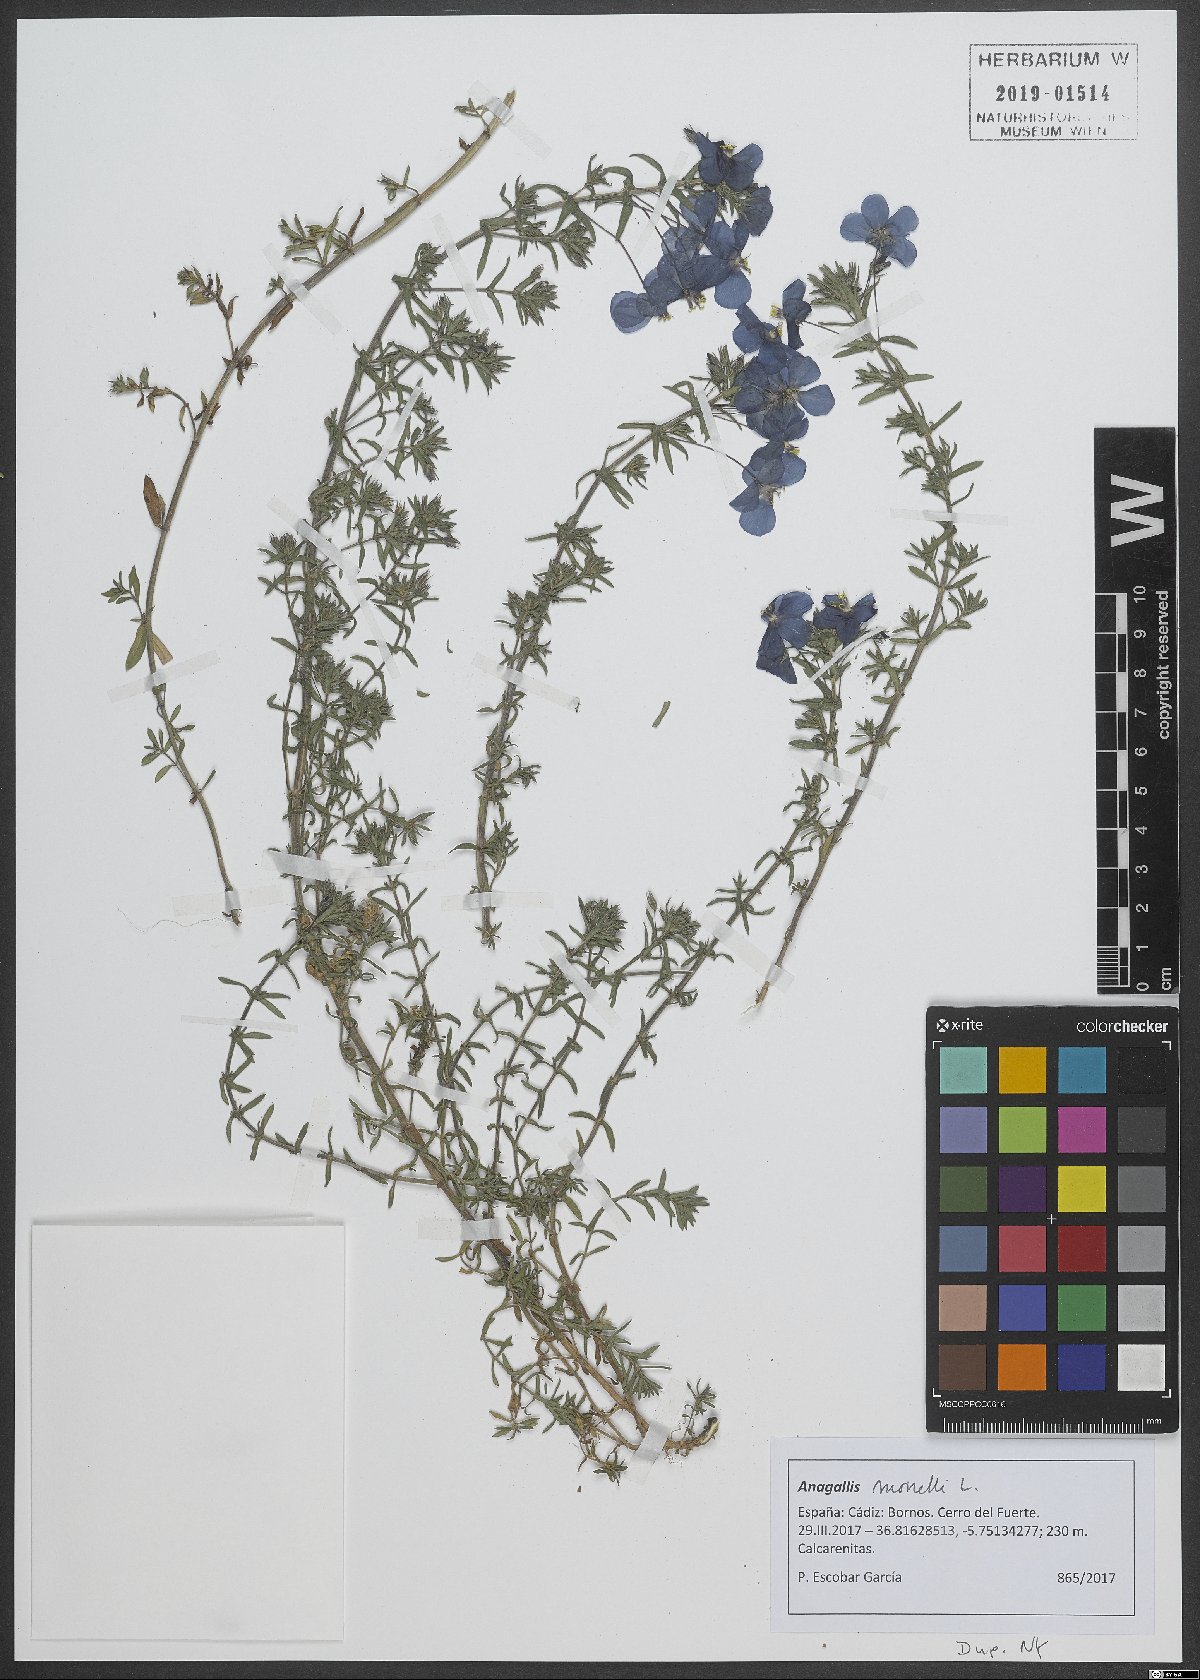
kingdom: Plantae
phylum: Tracheophyta
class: Magnoliopsida
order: Ericales
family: Primulaceae
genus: Lysimachia
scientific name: Lysimachia monelli
